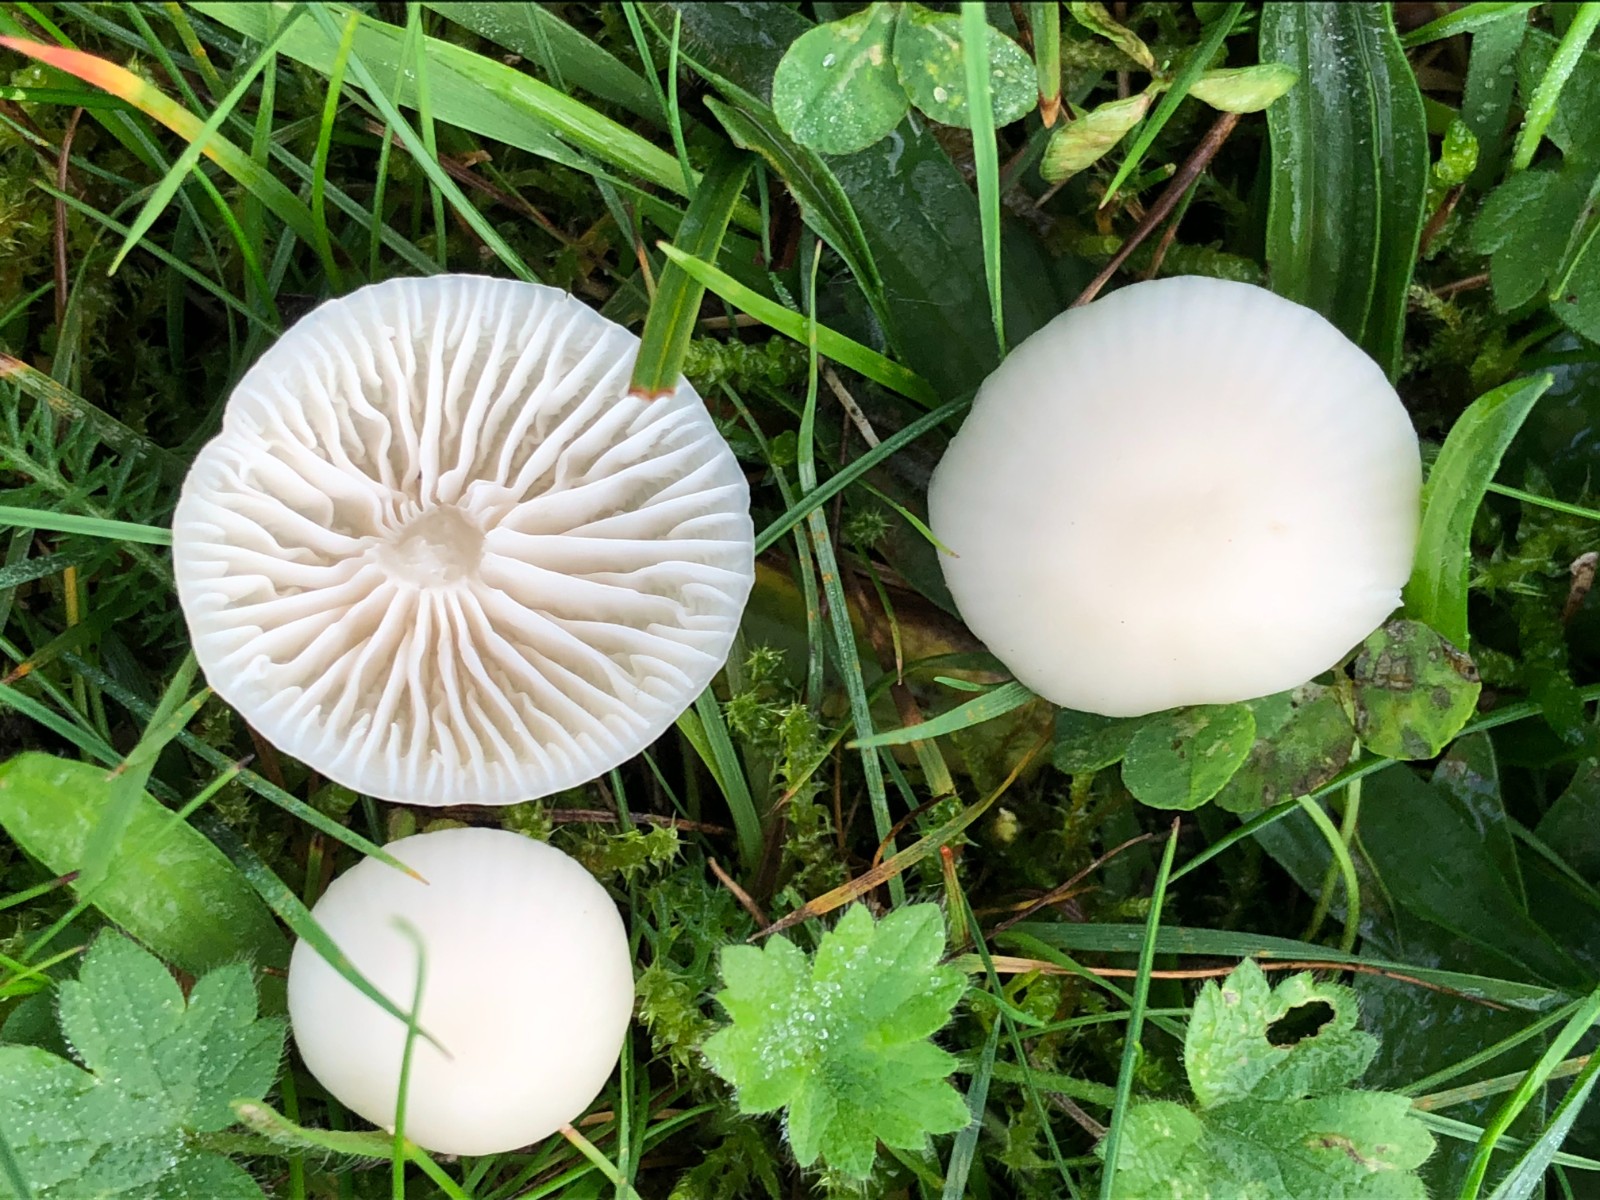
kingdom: Fungi
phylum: Basidiomycota
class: Agaricomycetes
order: Agaricales
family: Hygrophoraceae
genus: Cuphophyllus
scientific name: Cuphophyllus virgineus
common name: snehvid vokshat
